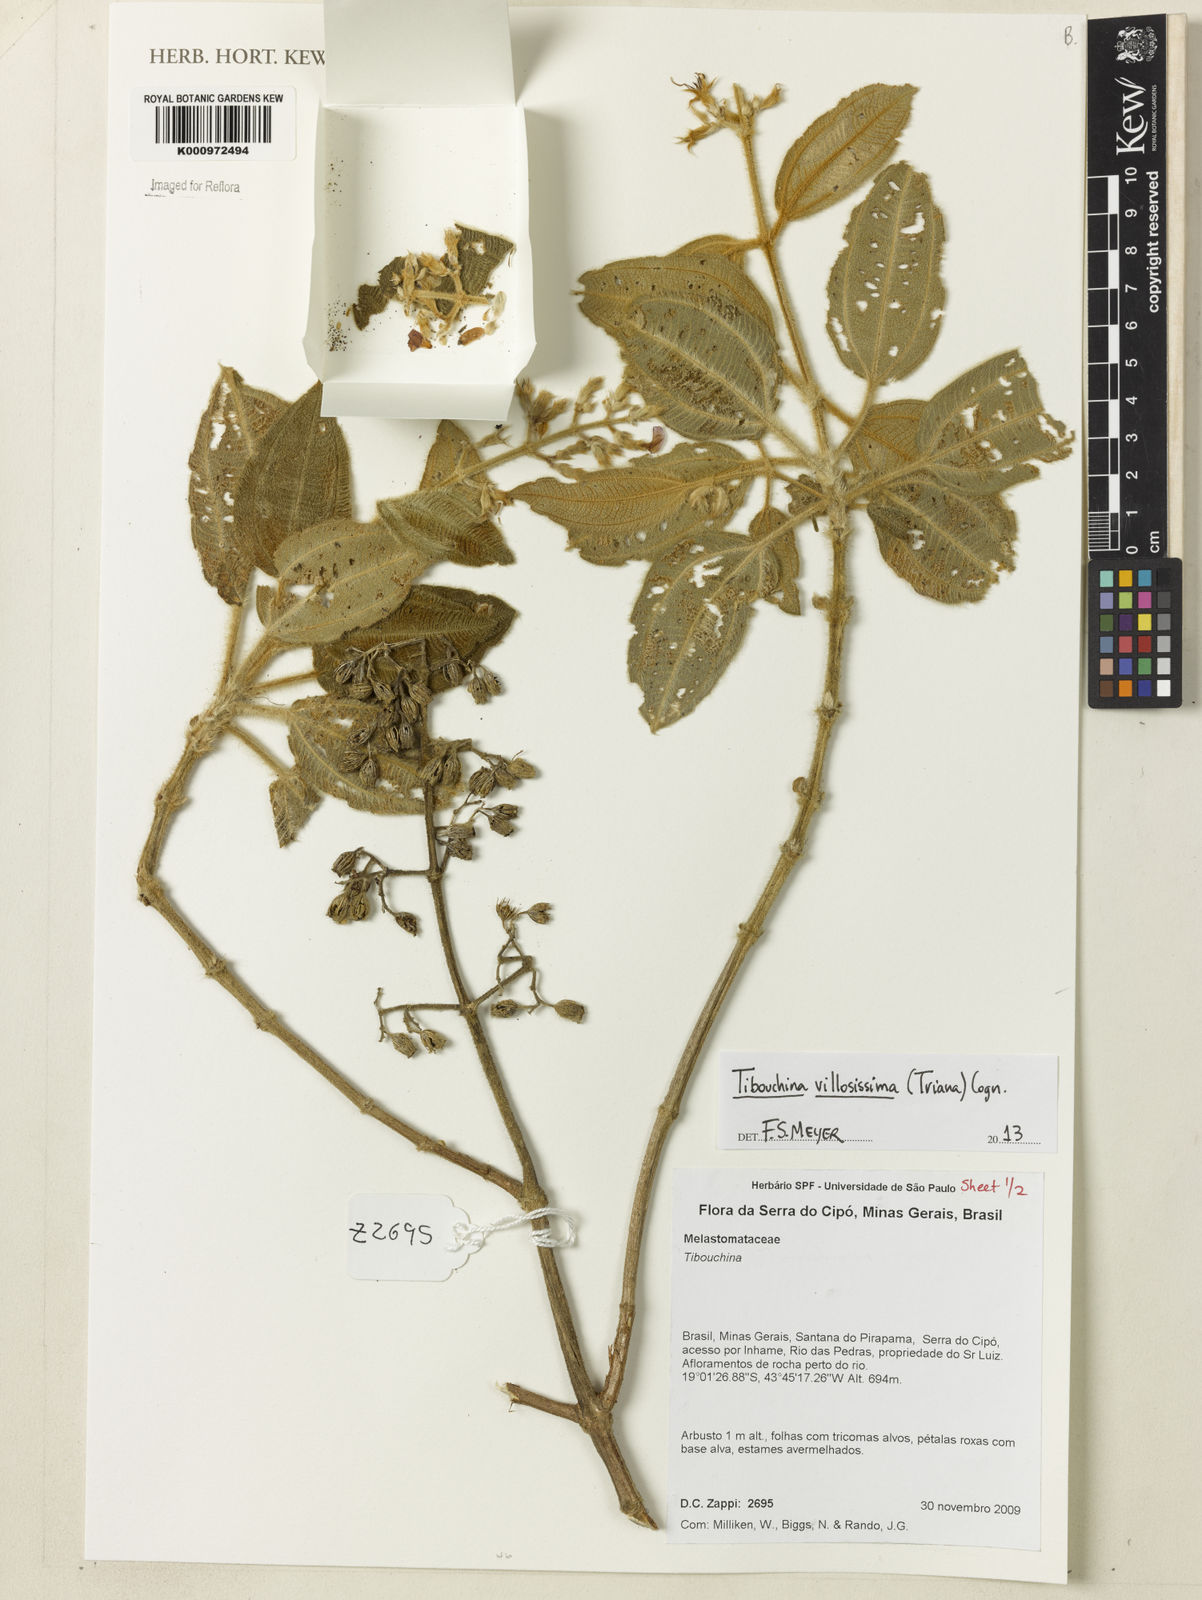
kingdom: Plantae
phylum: Tracheophyta
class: Magnoliopsida
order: Myrtales
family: Melastomataceae
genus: Pleroma
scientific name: Pleroma villosissimum
